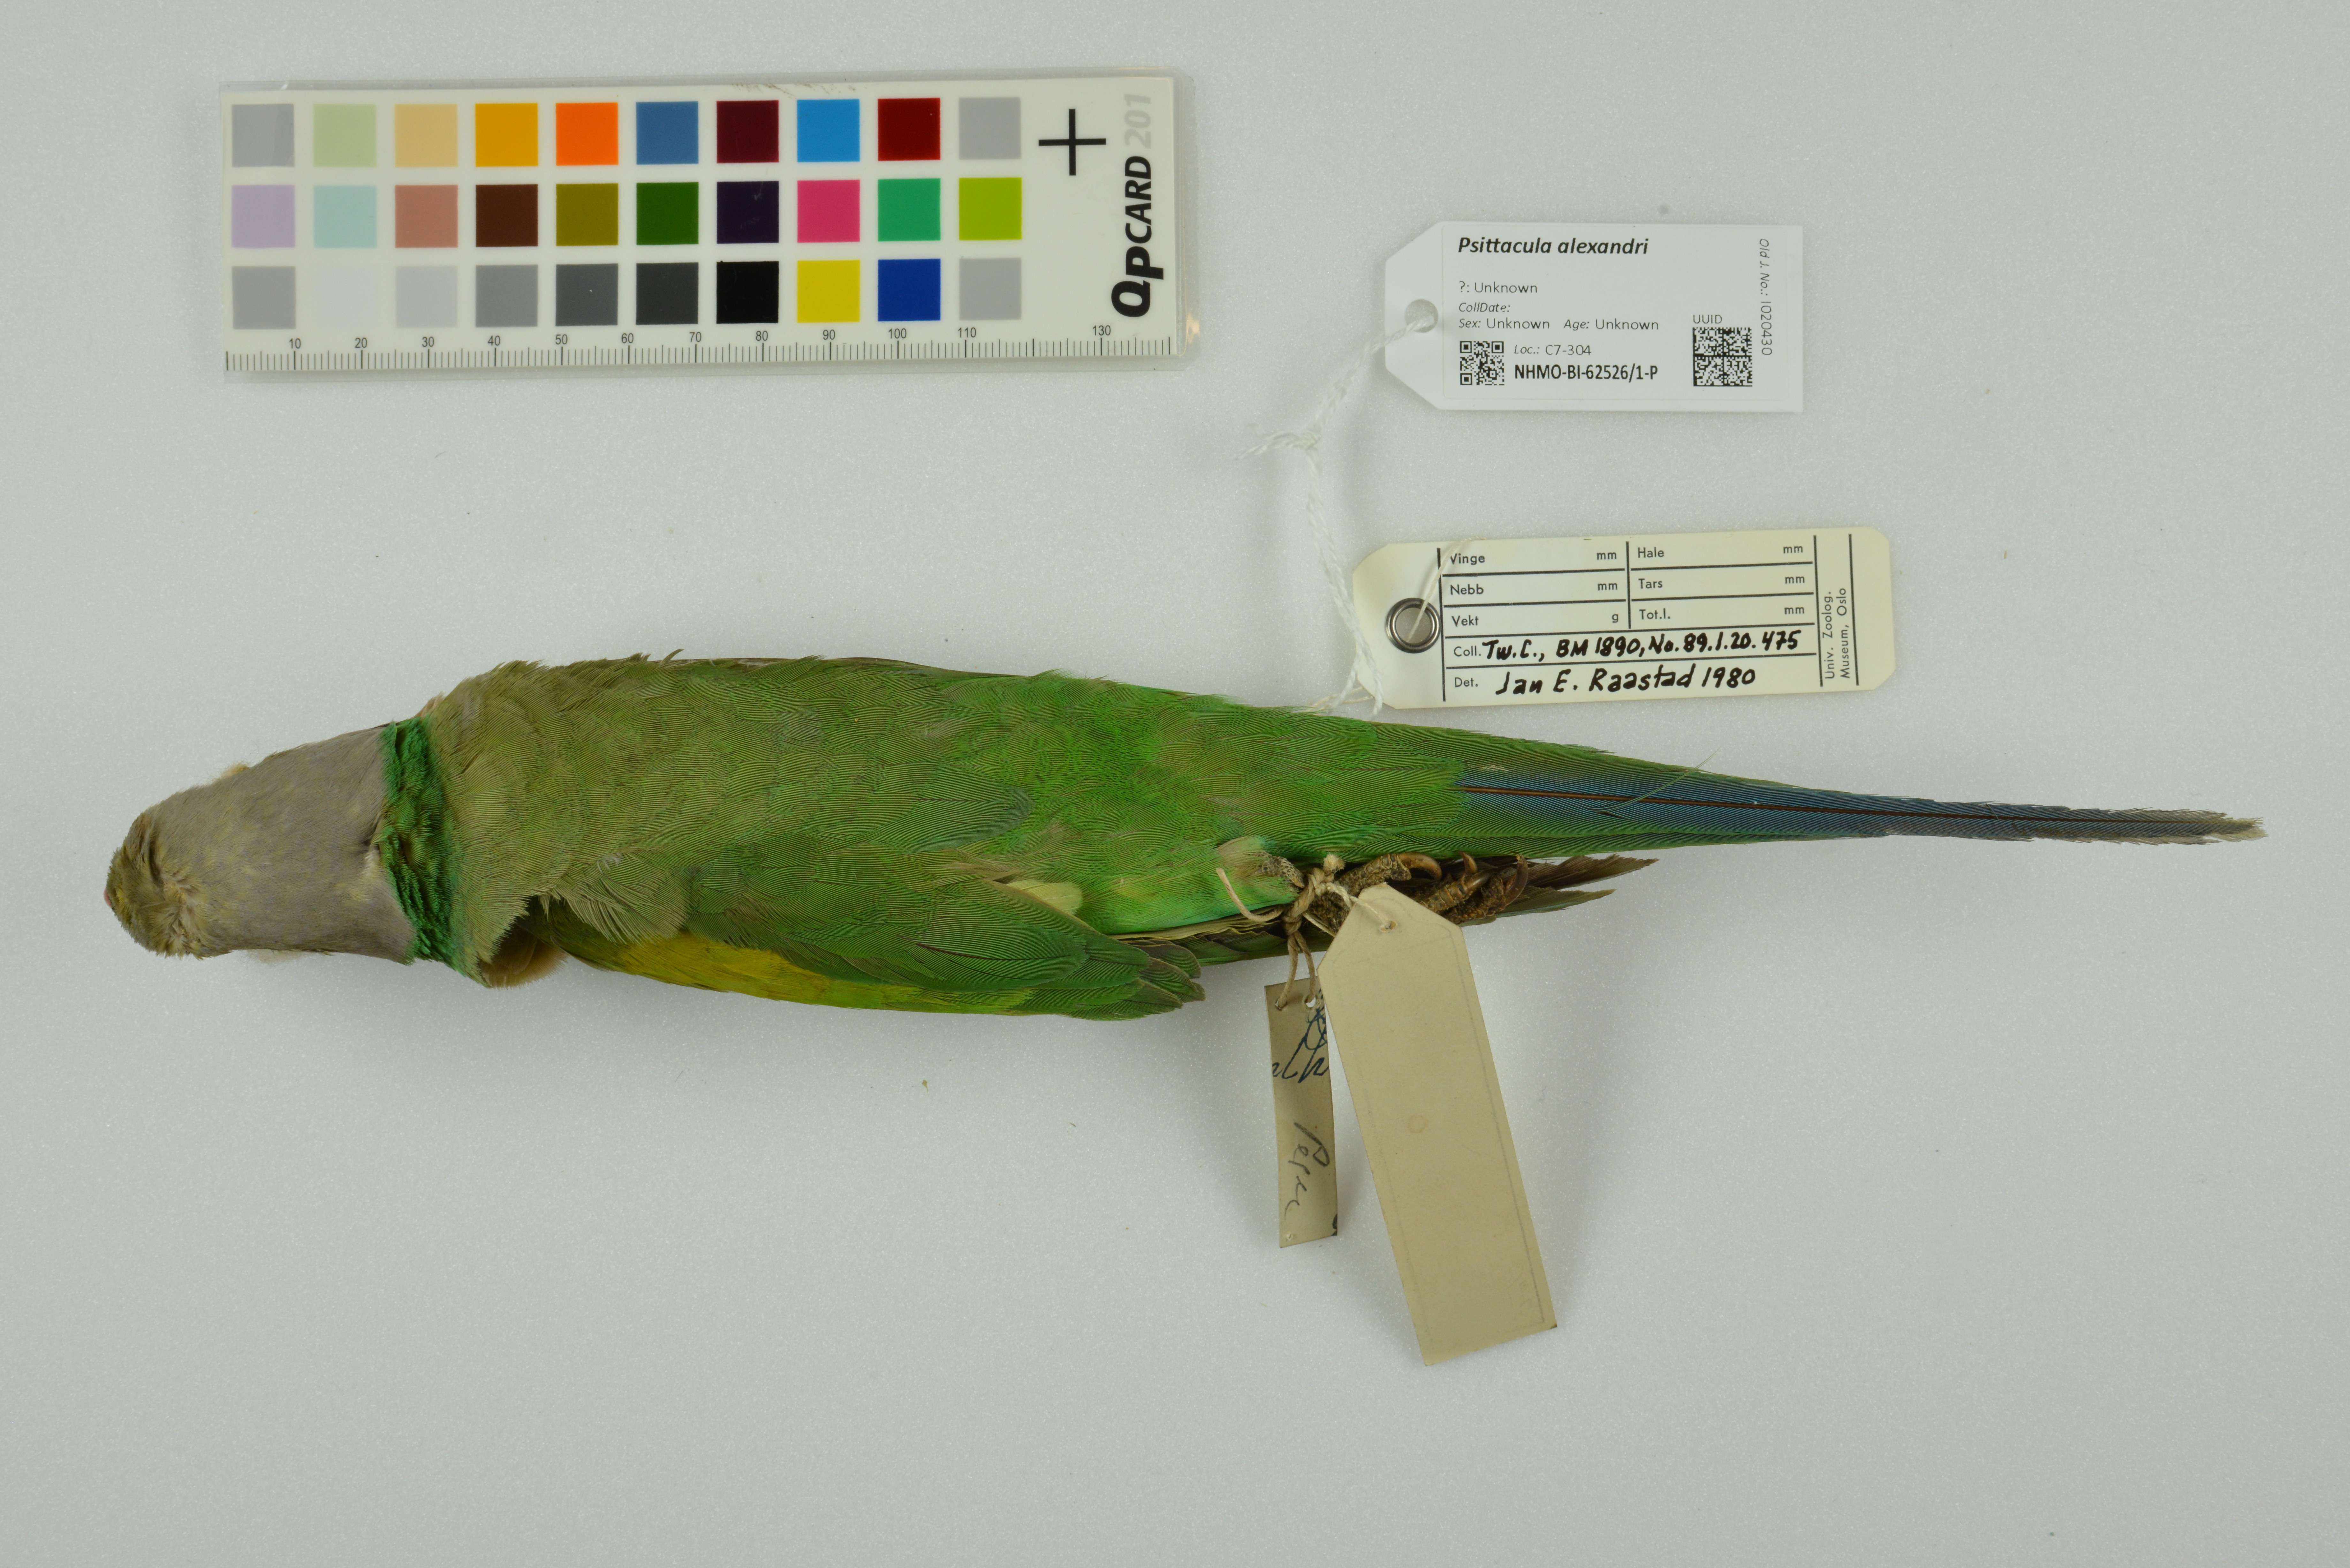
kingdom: Animalia
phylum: Chordata
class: Aves
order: Psittaciformes
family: Psittacidae
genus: Psittacula
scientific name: Psittacula alexandri
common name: Red-breasted parakeet
